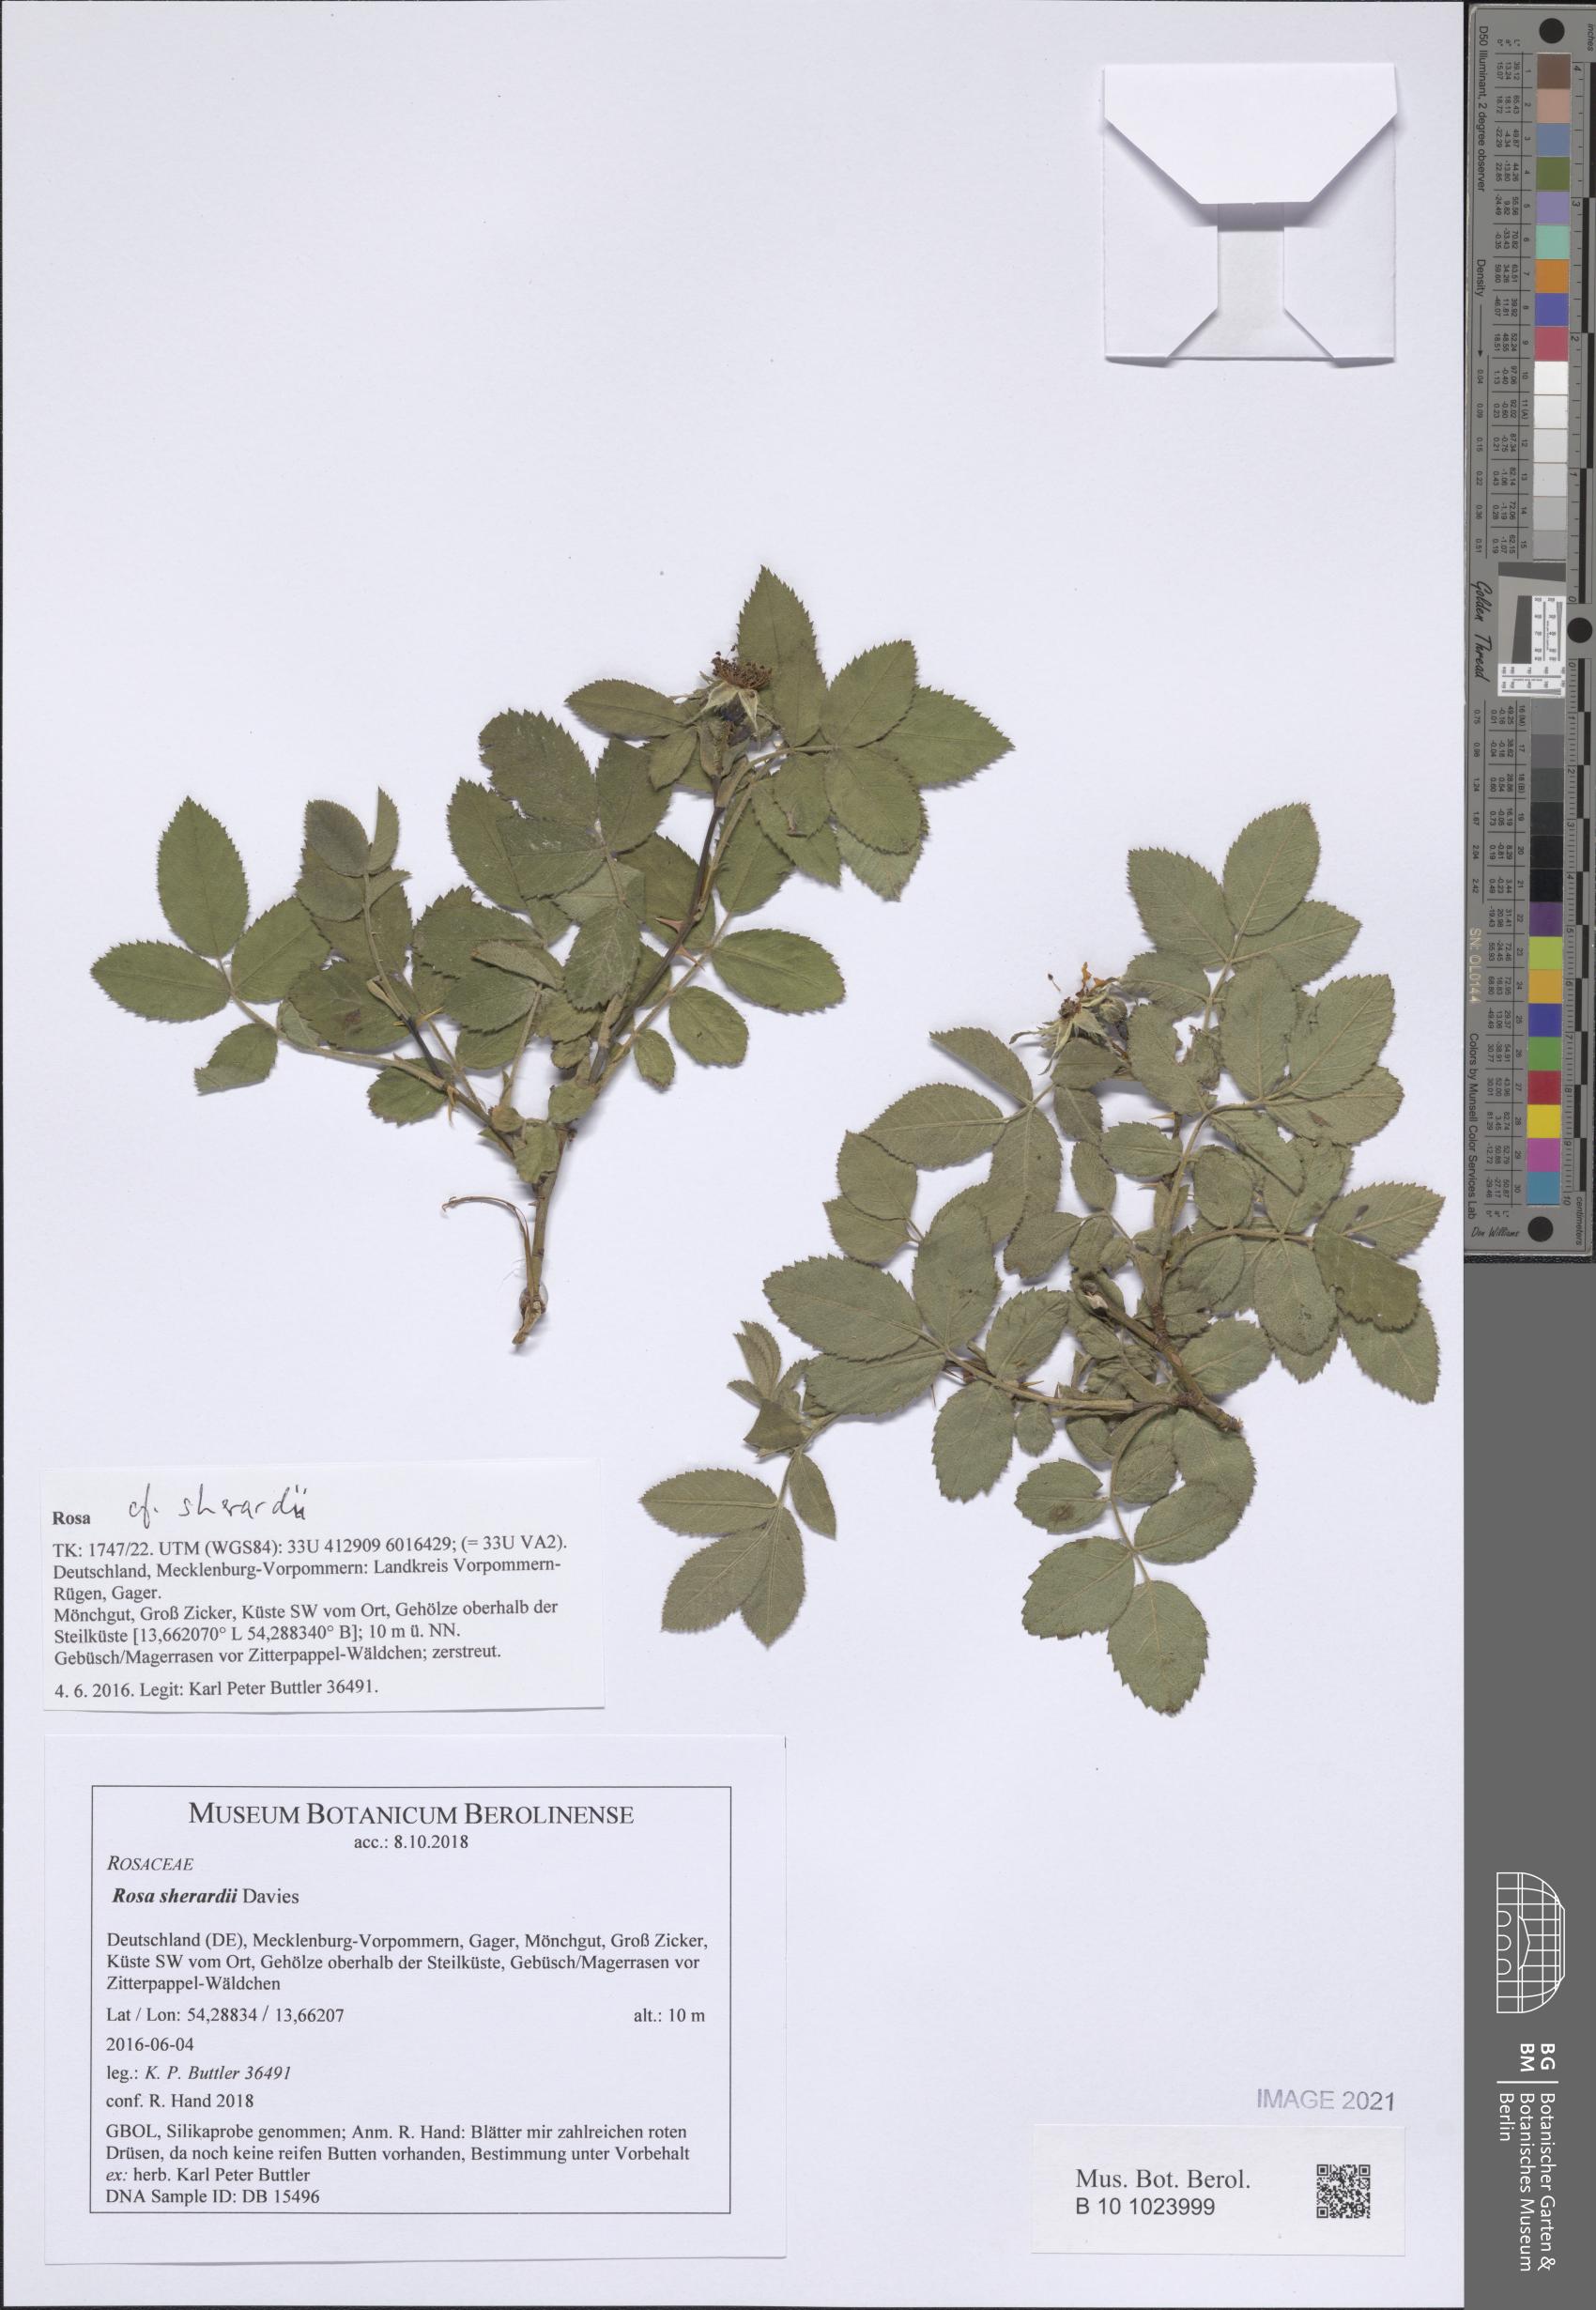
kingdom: Plantae
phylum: Tracheophyta
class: Magnoliopsida
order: Rosales
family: Rosaceae
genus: Rosa
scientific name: Rosa sherardii
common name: Sherard's downy rose
